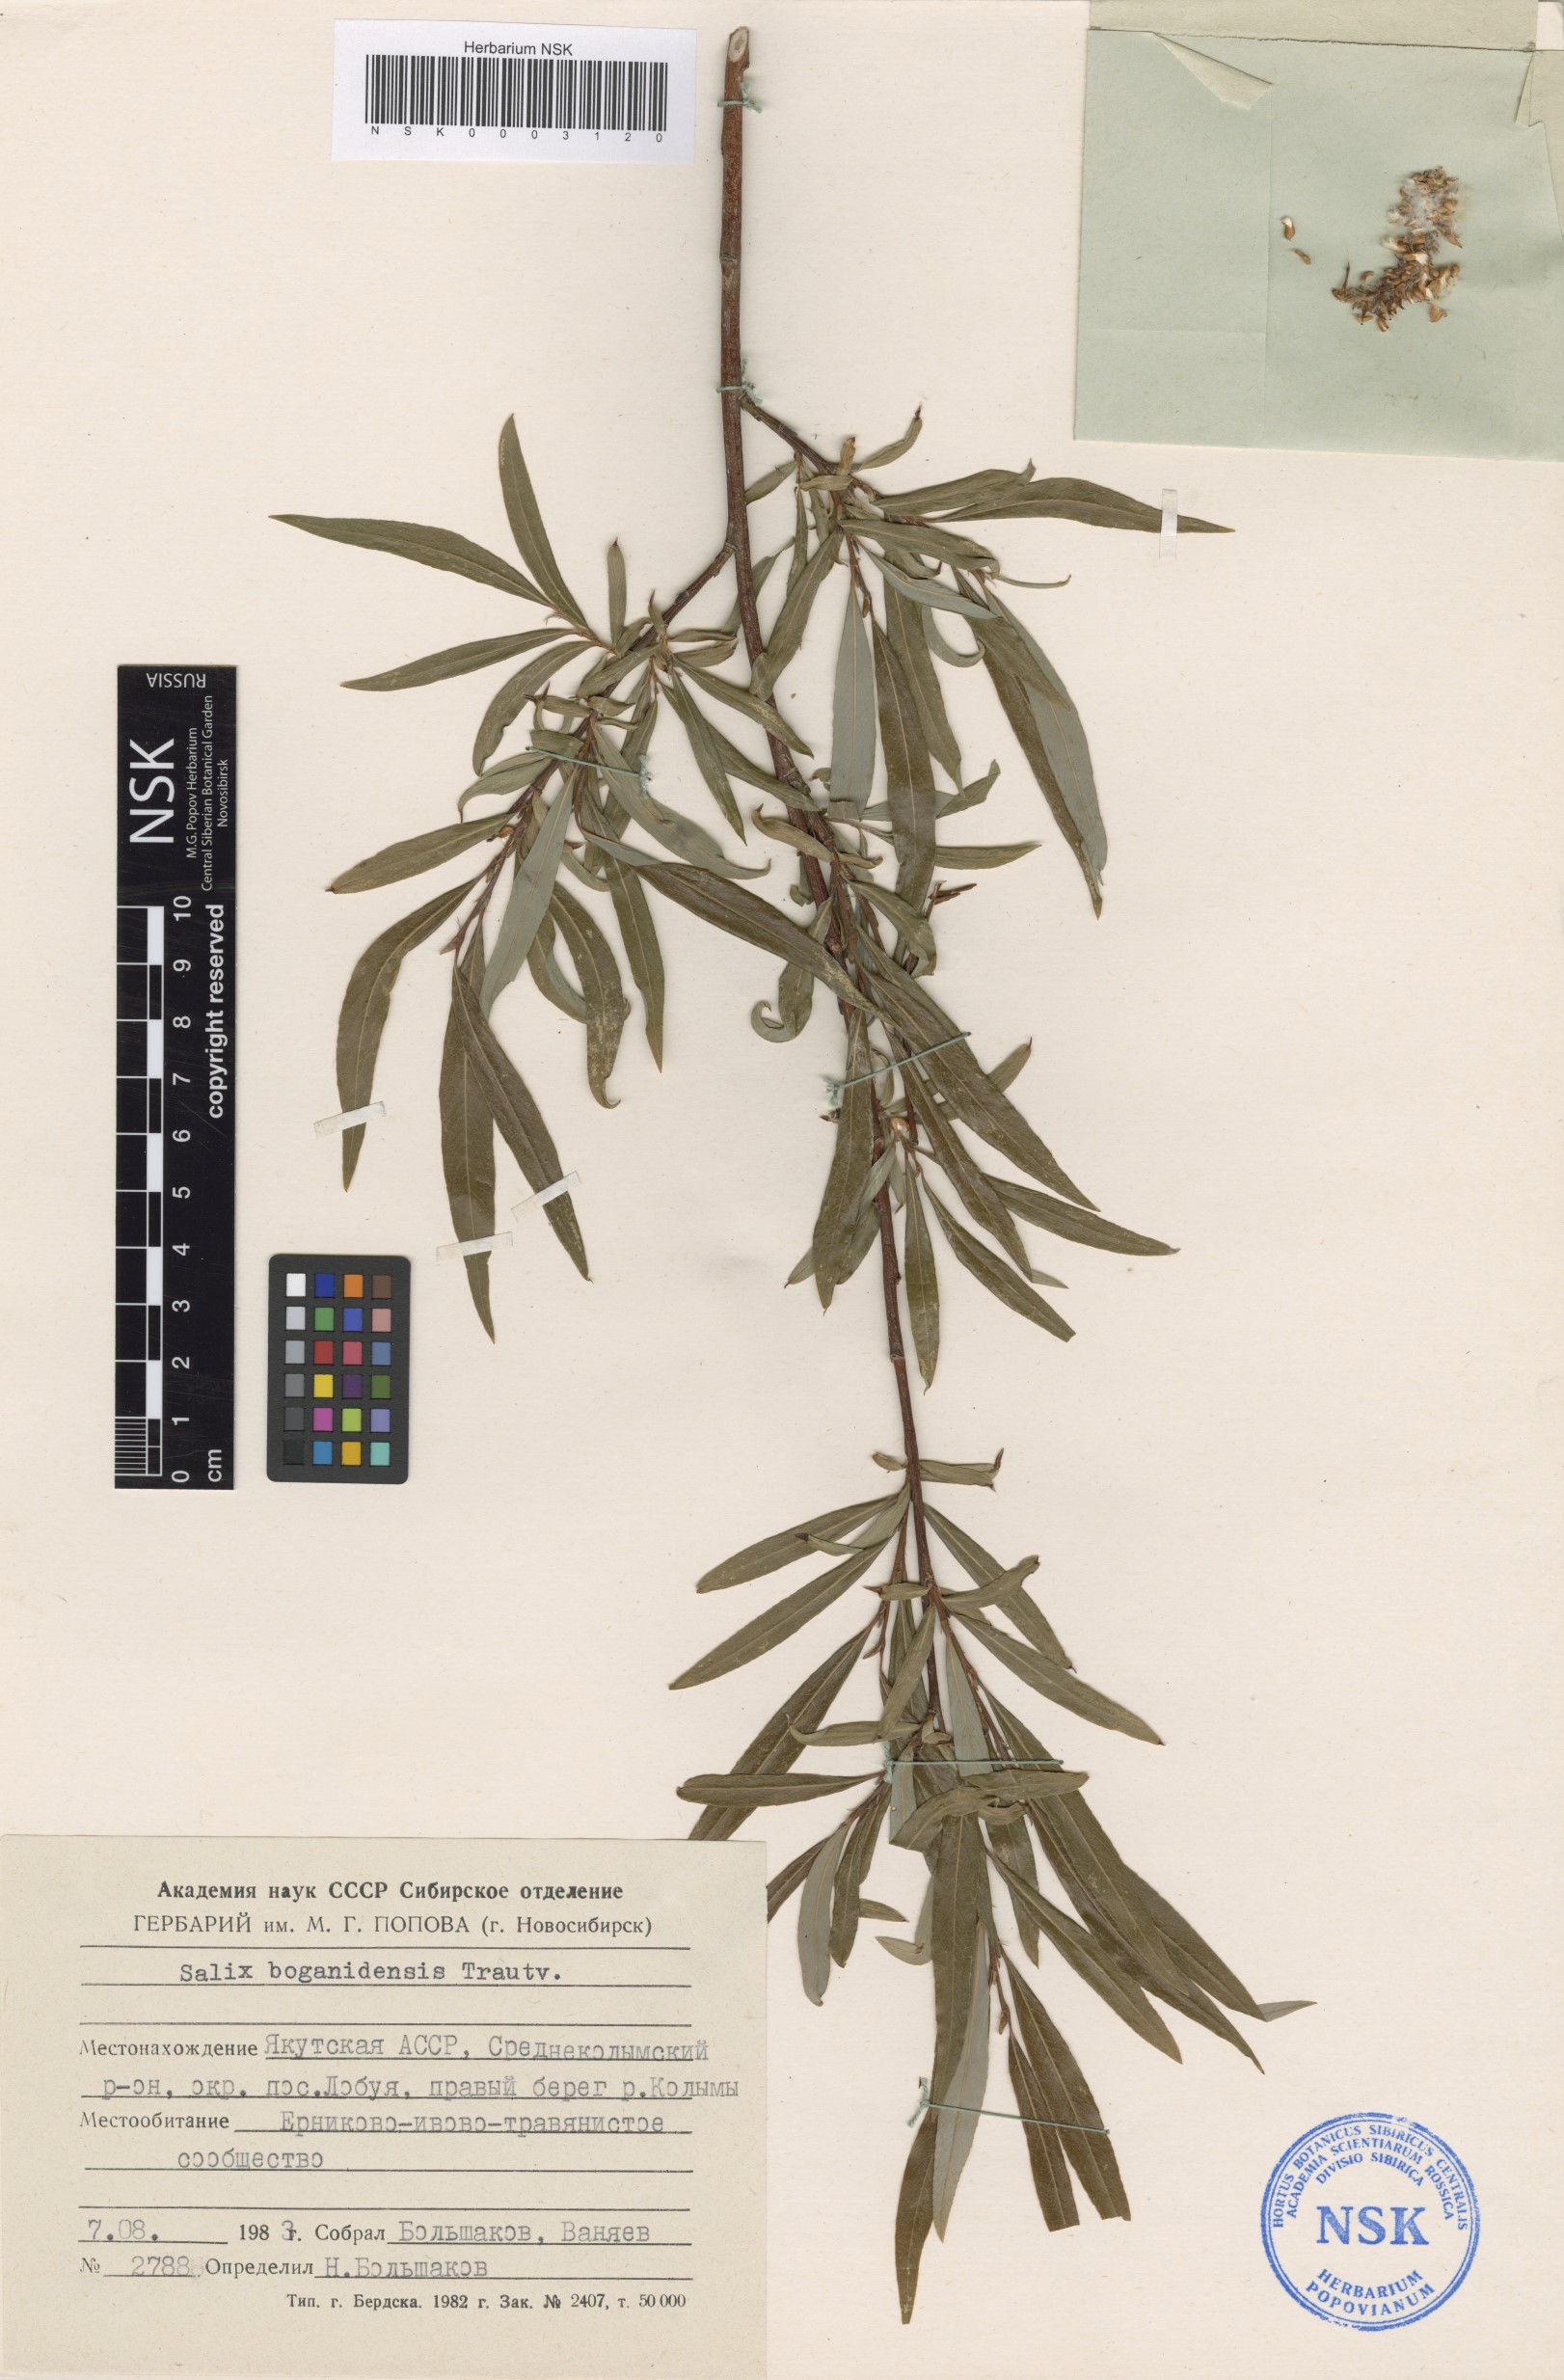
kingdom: Plantae
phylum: Tracheophyta
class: Magnoliopsida
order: Malpighiales
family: Salicaceae
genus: Salix
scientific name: Salix boganidensis
